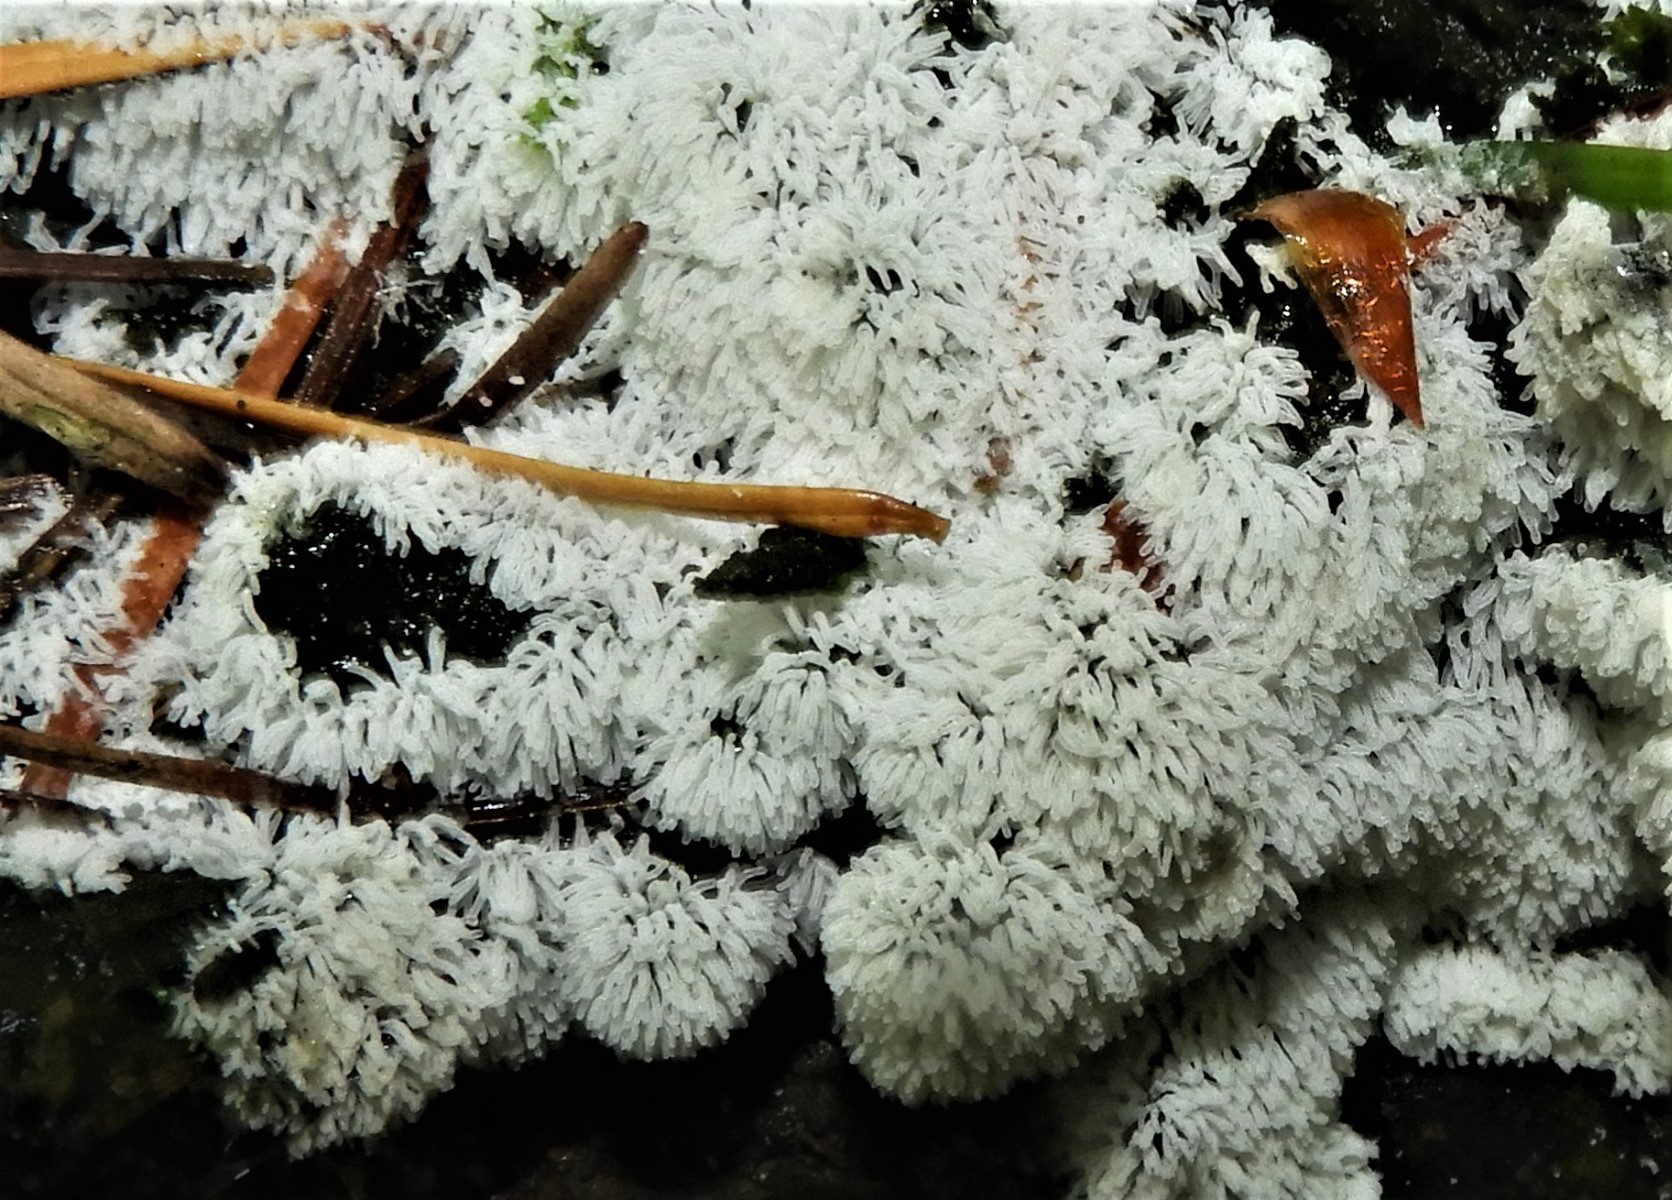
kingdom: Protozoa
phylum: Mycetozoa
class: Protosteliomycetes
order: Ceratiomyxales
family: Ceratiomyxaceae
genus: Ceratiomyxa
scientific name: Ceratiomyxa fruticulosa
